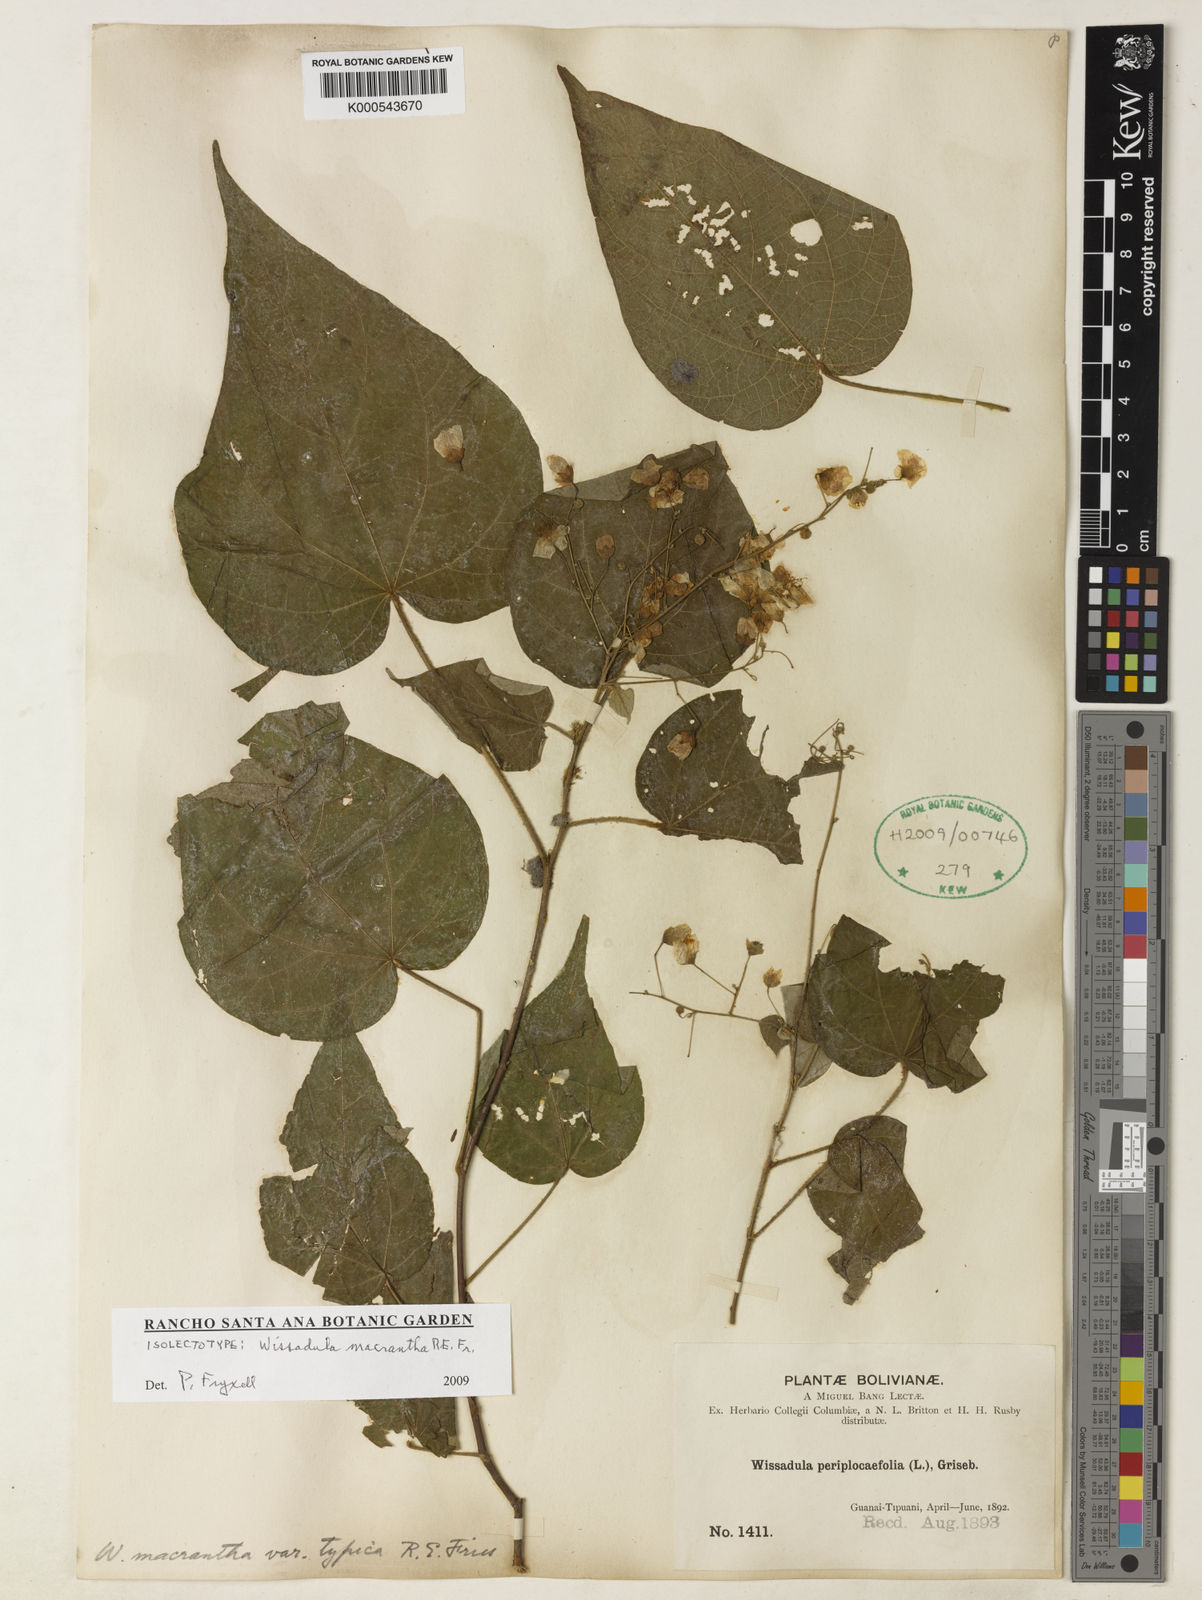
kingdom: Plantae
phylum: Tracheophyta
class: Magnoliopsida
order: Malvales
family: Malvaceae
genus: Wissadula
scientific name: Wissadula grandifolia
